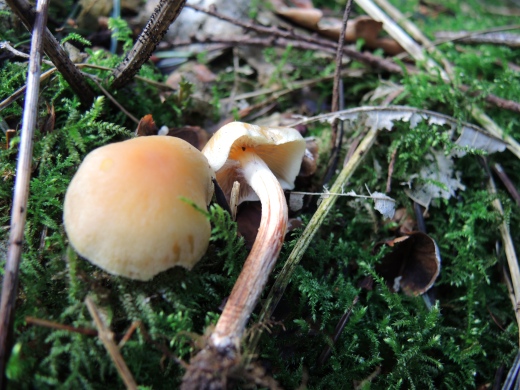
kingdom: Fungi
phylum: Basidiomycota
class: Agaricomycetes
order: Agaricales
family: Strophariaceae
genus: Hypholoma
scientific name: Hypholoma capnoides
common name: gran-svovlhat
